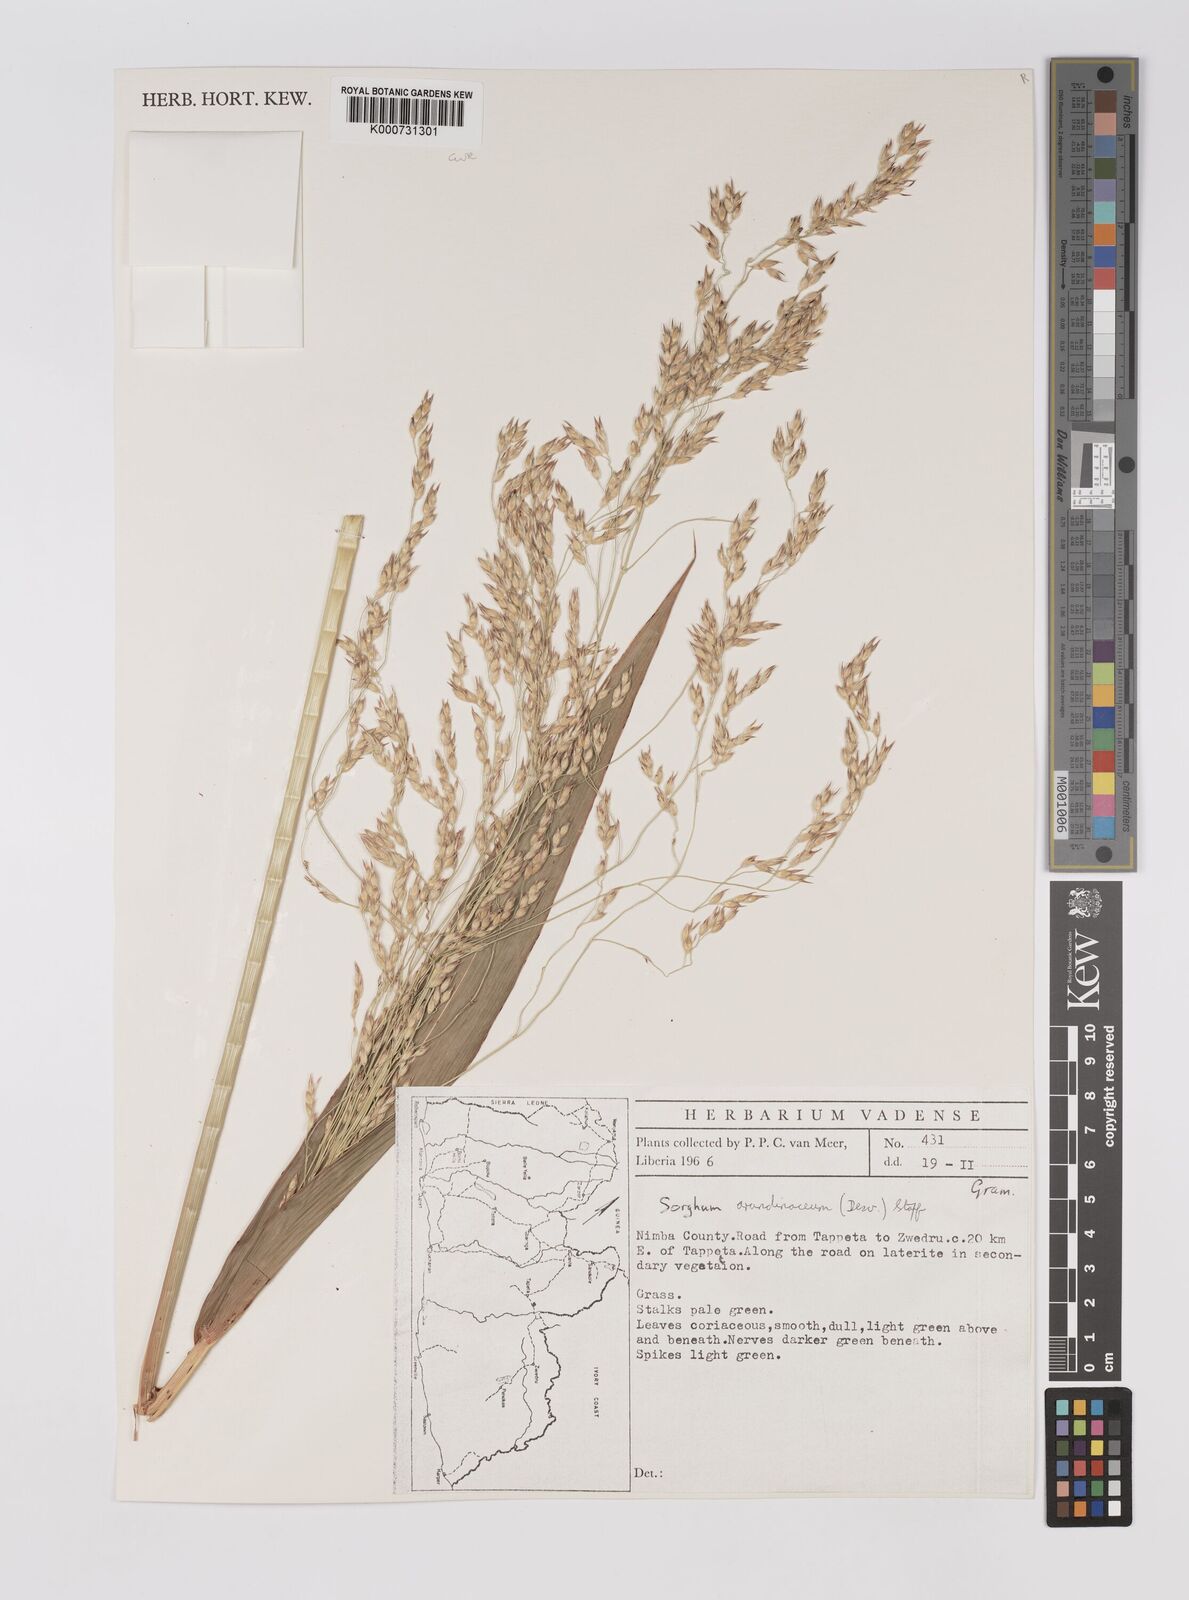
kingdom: Plantae
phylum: Tracheophyta
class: Liliopsida
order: Poales
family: Poaceae
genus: Sorghum
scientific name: Sorghum arundinaceum
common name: Sorghum
